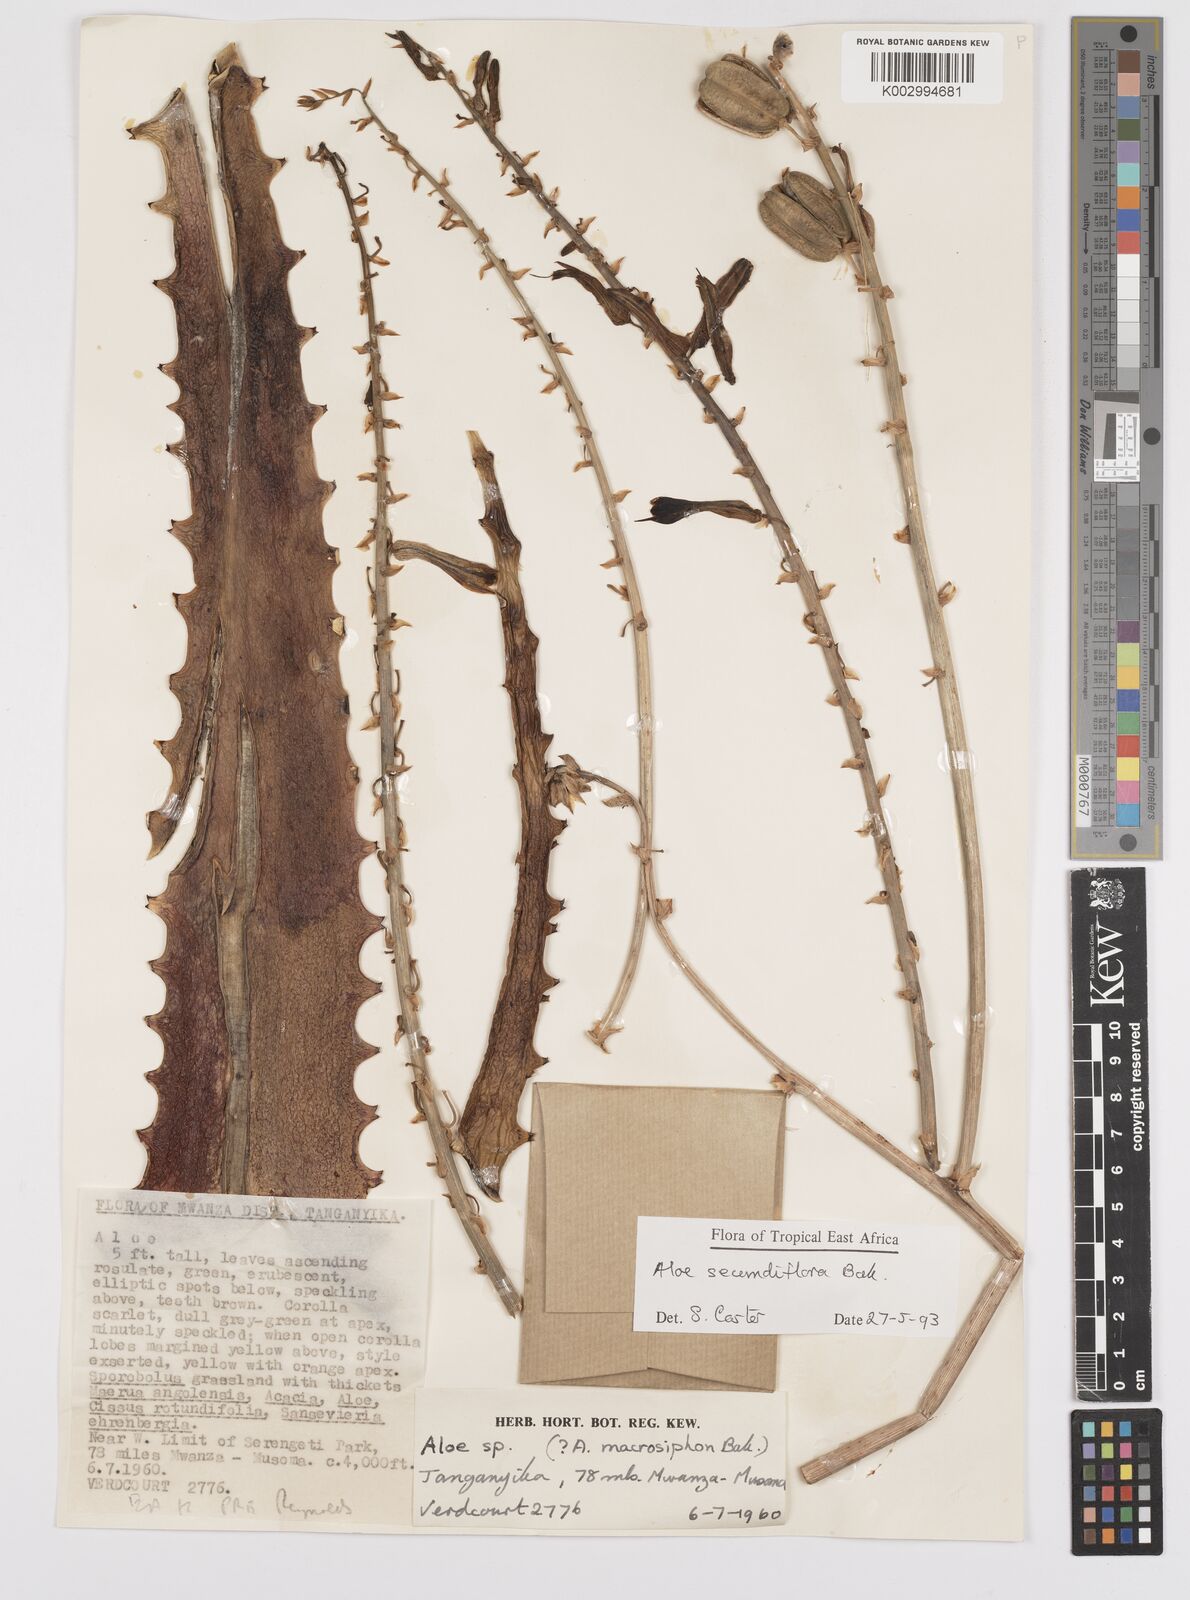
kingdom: Plantae
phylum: Tracheophyta
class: Liliopsida
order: Asparagales
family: Asphodelaceae
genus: Aloe
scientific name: Aloe secundiflora
